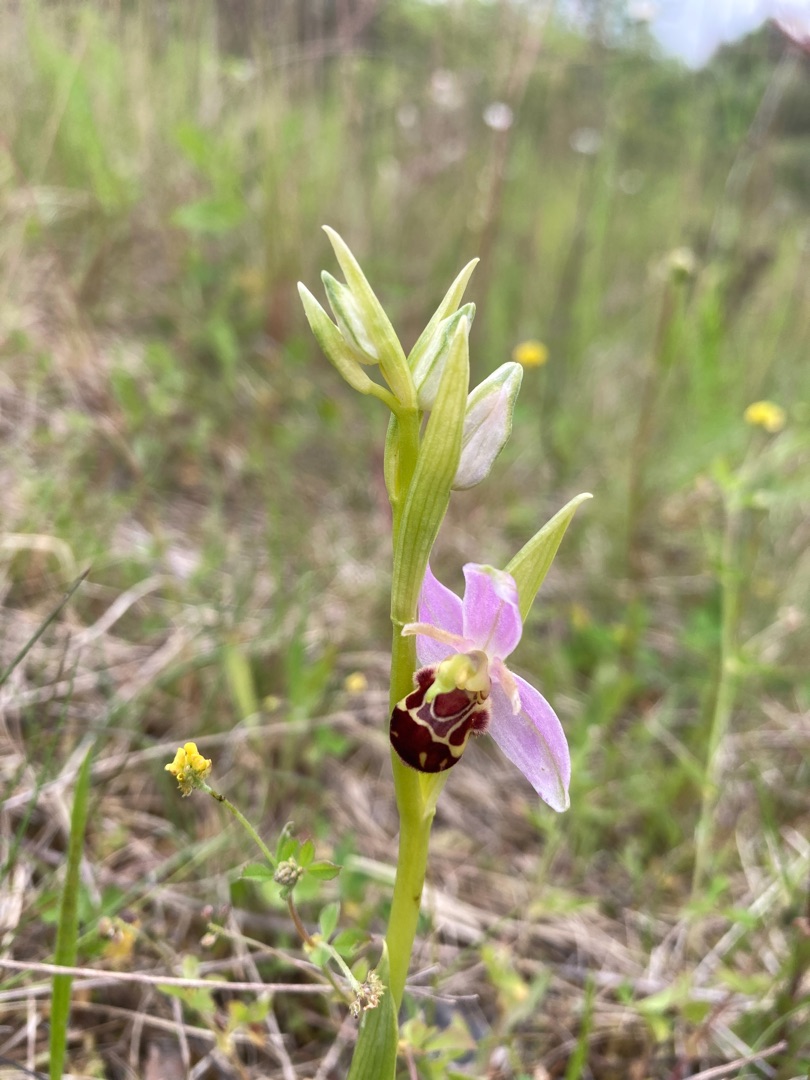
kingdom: Plantae
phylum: Tracheophyta
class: Liliopsida
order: Asparagales
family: Orchidaceae
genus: Ophrys
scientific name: Ophrys apifera
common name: Biblomst
